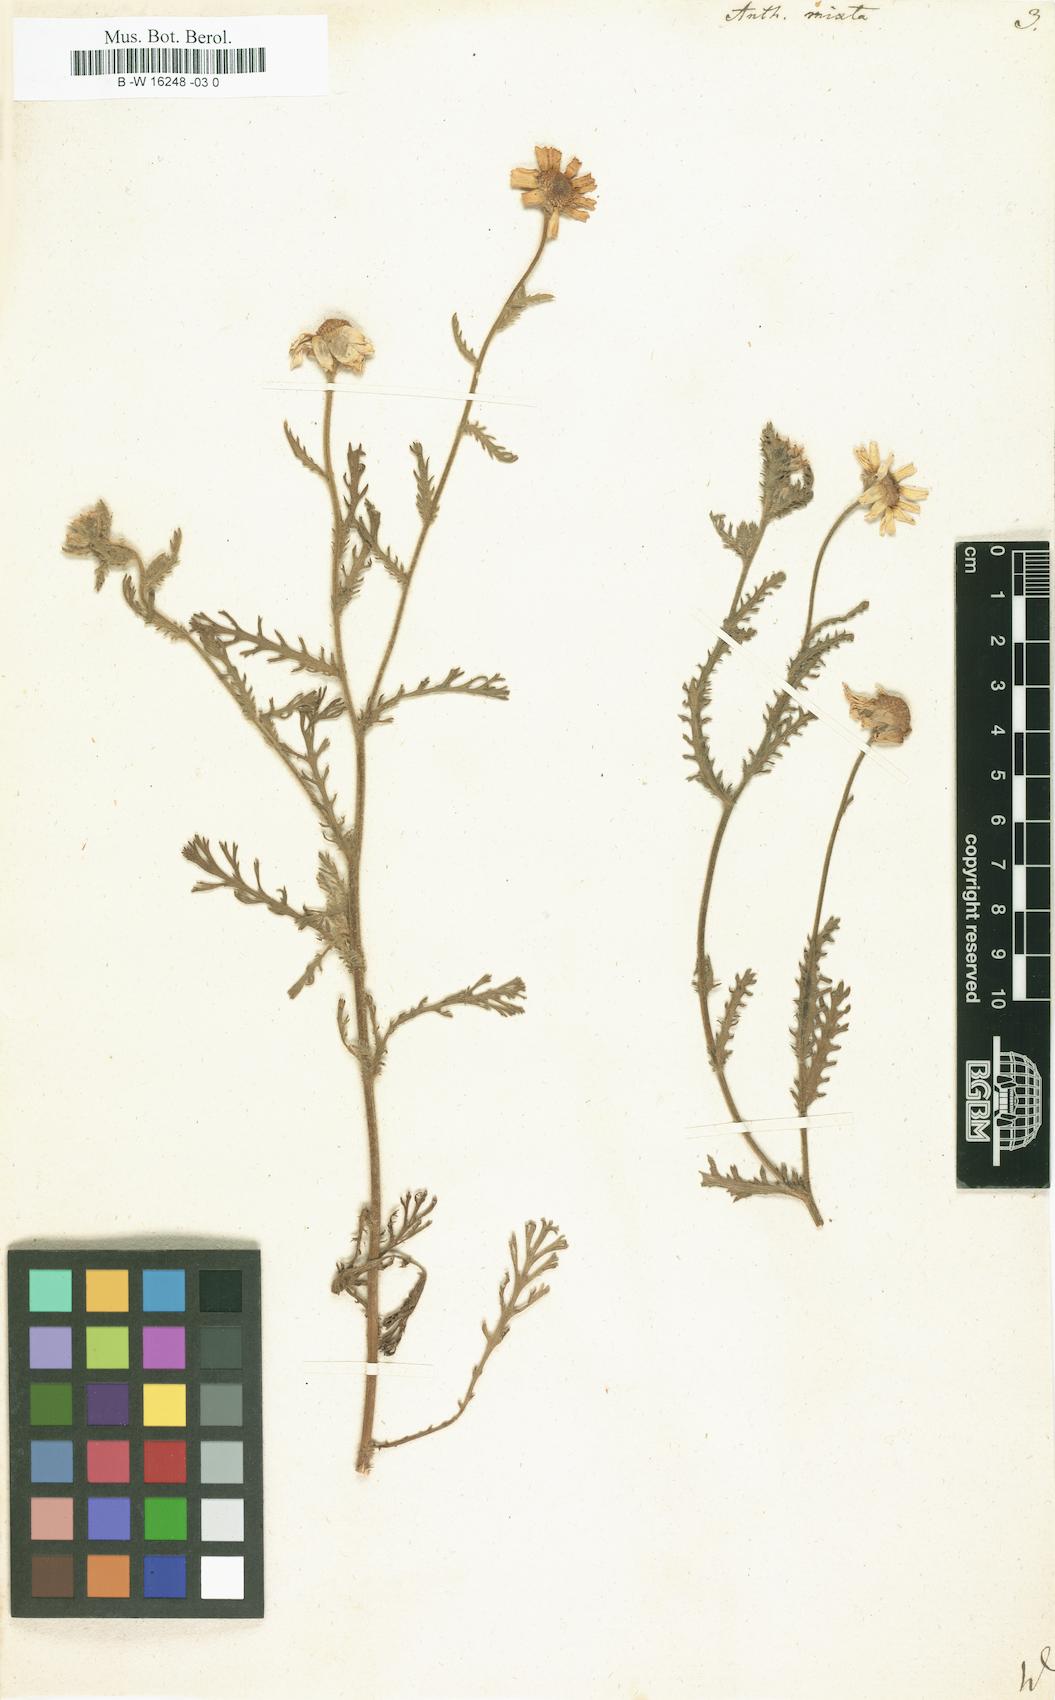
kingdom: Plantae
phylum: Tracheophyta
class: Magnoliopsida
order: Asterales
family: Asteraceae
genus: Cladanthus
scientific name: Cladanthus mixtus
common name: Weedy dogfennel
